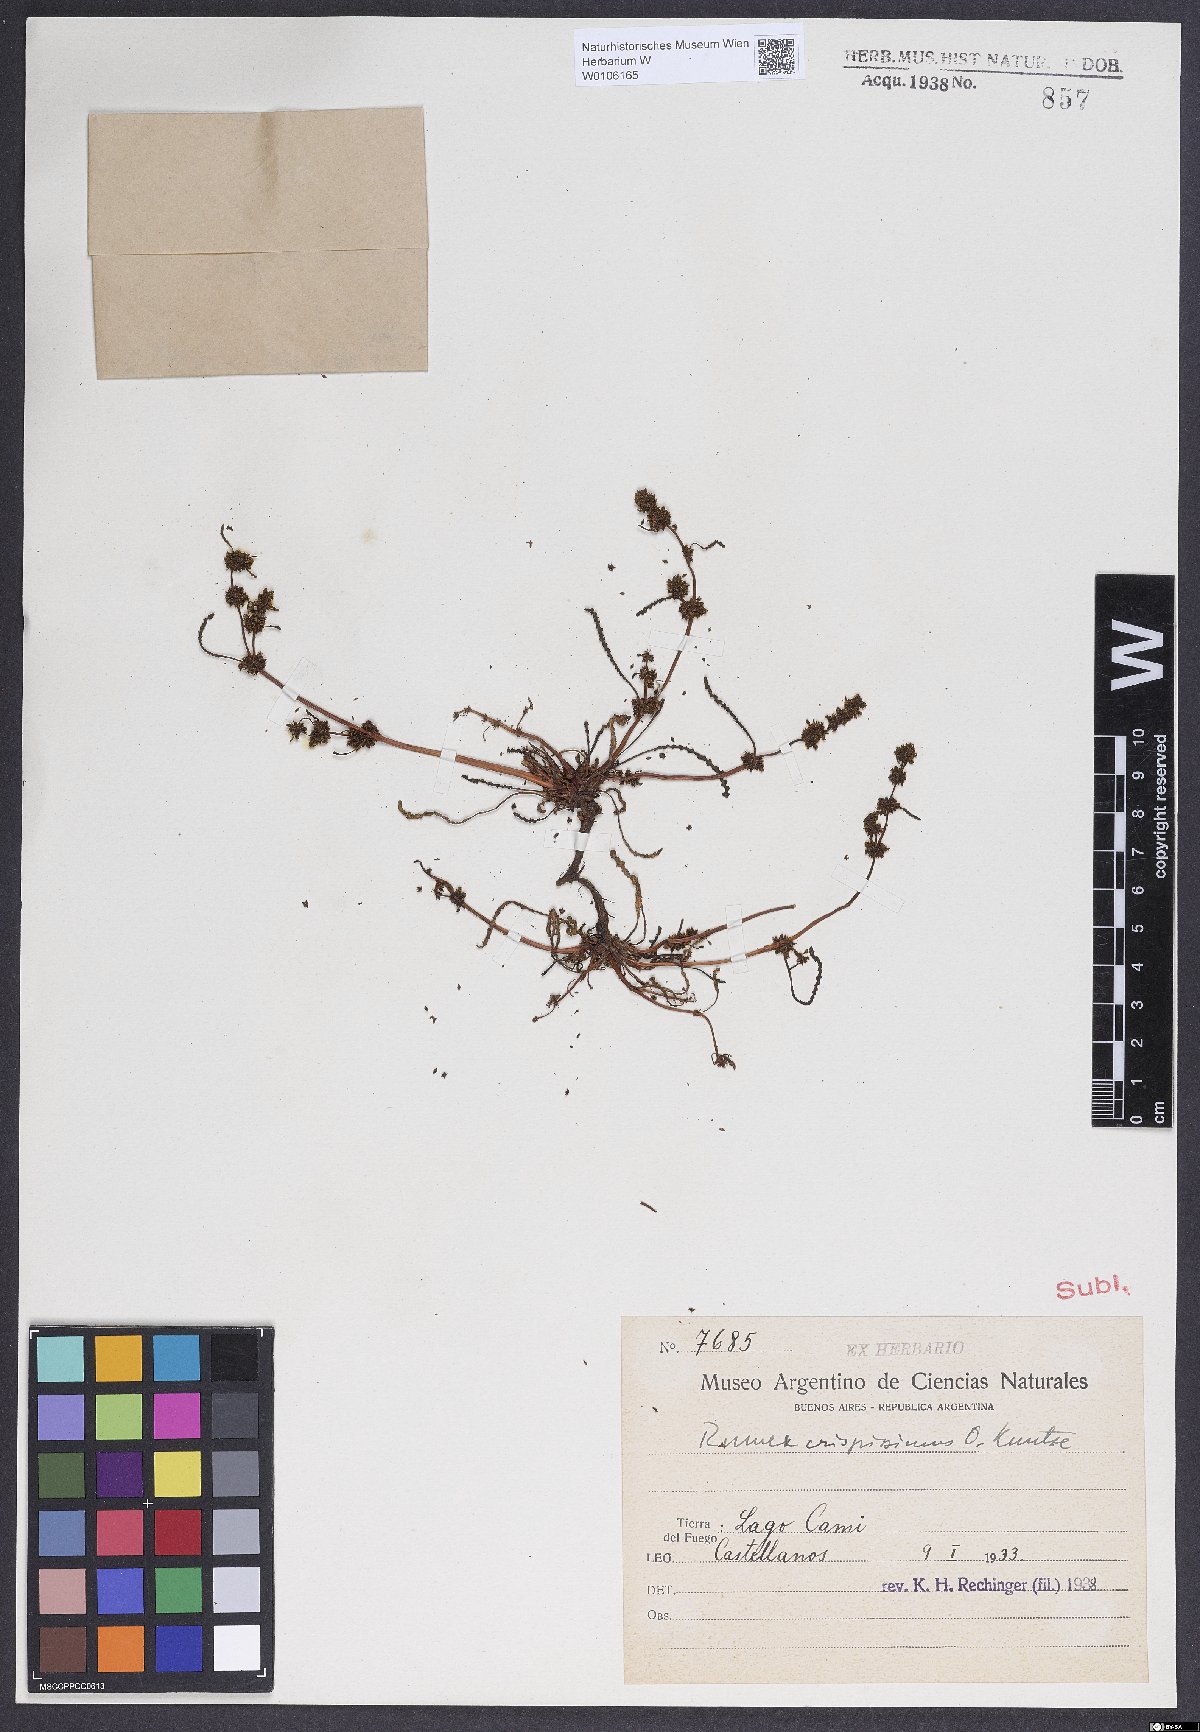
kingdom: Plantae
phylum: Tracheophyta
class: Magnoliopsida
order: Caryophyllales
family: Polygonaceae
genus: Rumex
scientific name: Rumex
